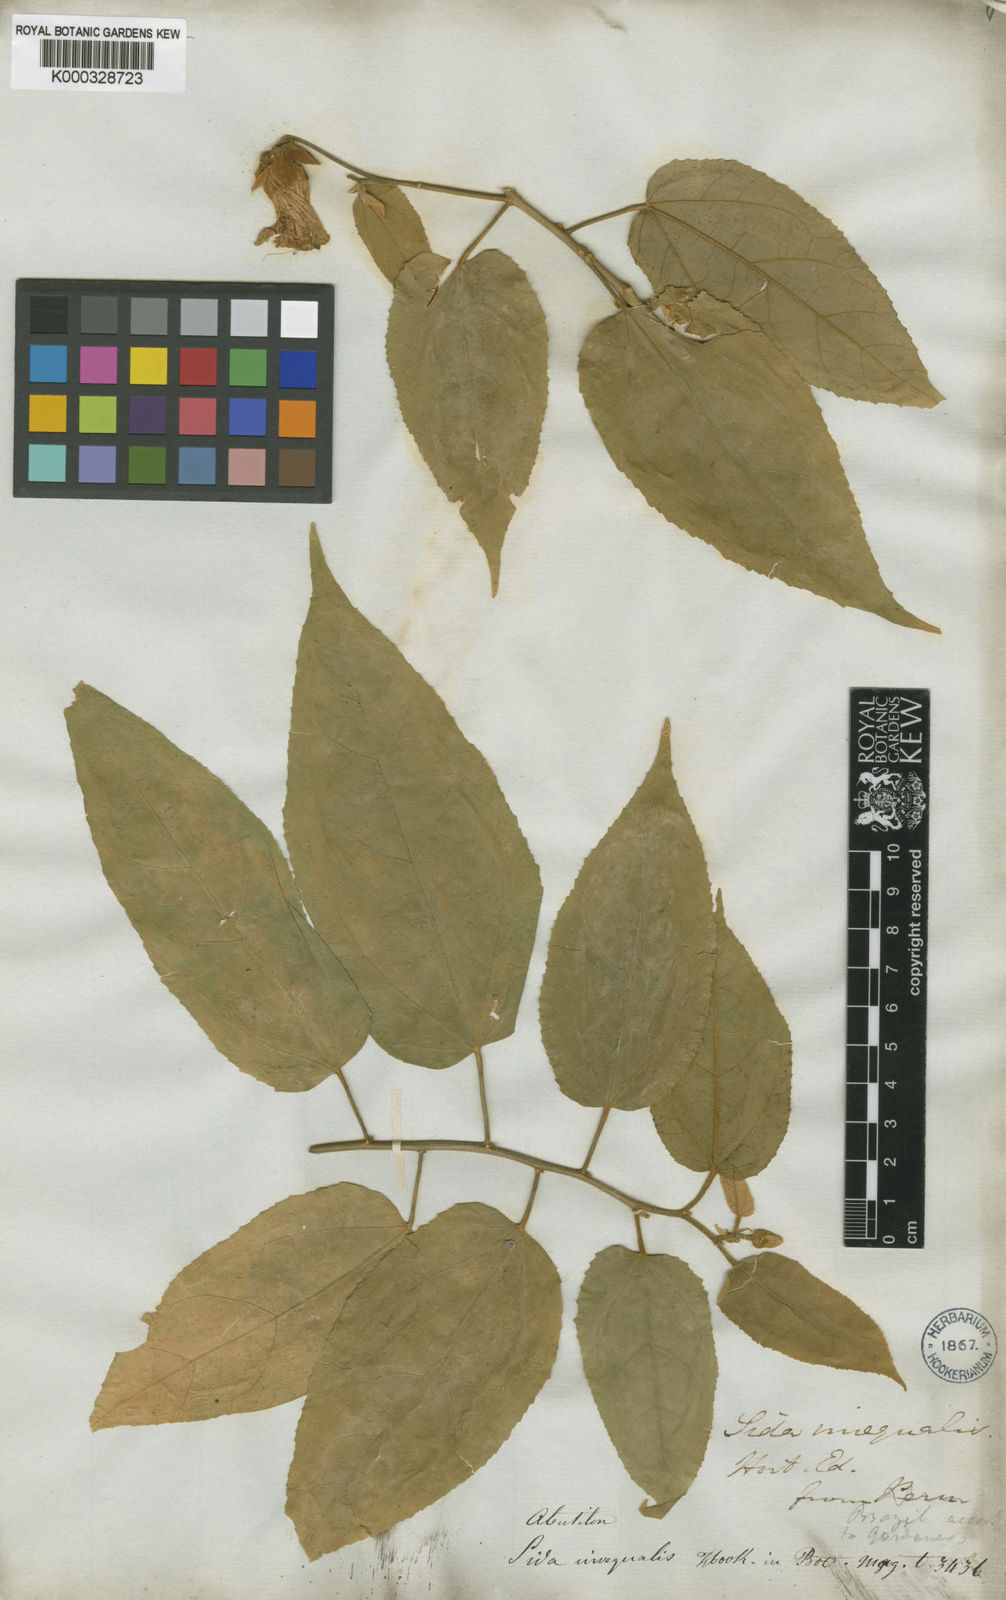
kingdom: Plantae
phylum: Tracheophyta
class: Magnoliopsida
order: Malvales
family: Malvaceae
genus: Callianthe
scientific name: Callianthe inaequalis
